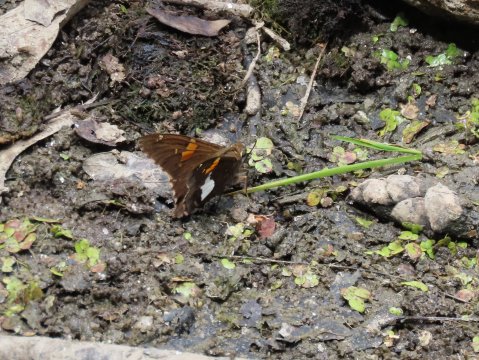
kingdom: Animalia
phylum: Arthropoda
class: Insecta
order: Lepidoptera
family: Hesperiidae
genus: Epargyreus
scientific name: Epargyreus clarus
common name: Silver-spotted Skipper
